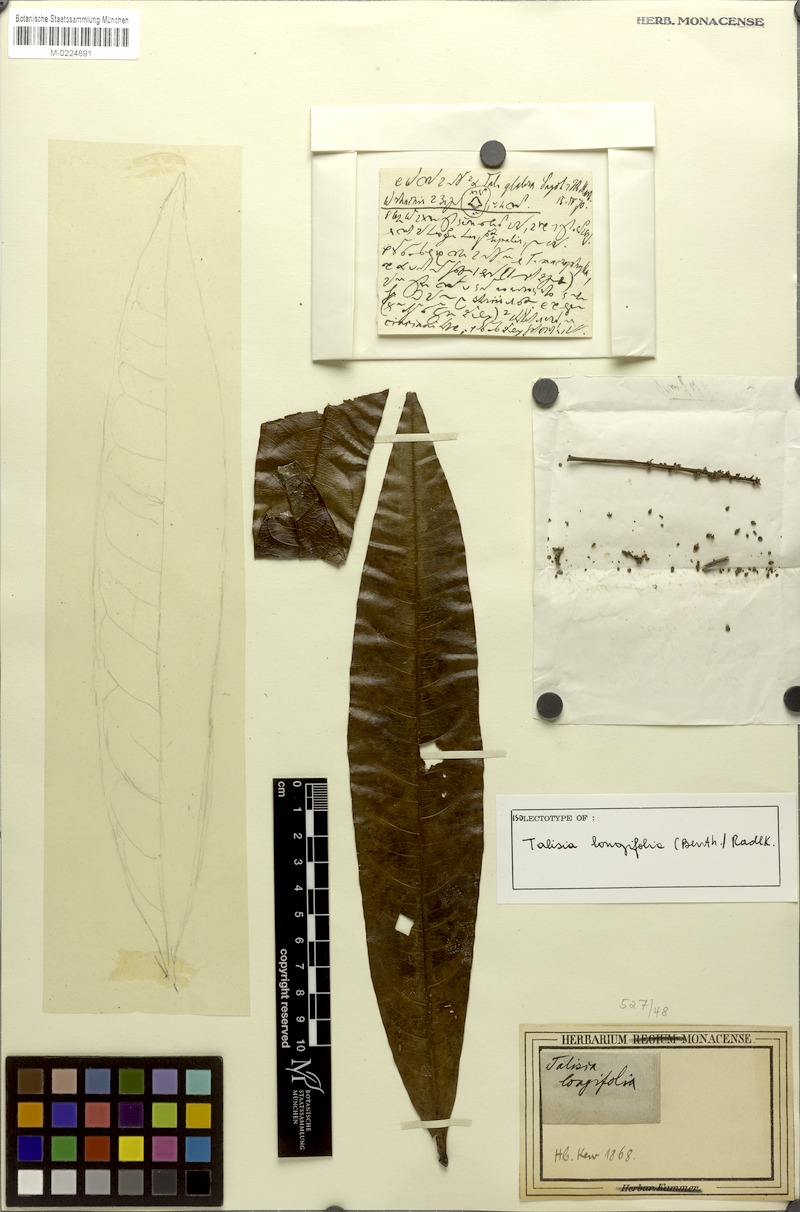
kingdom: Plantae
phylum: Tracheophyta
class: Magnoliopsida
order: Sapindales
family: Sapindaceae
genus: Talisia
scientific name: Talisia longifolia
